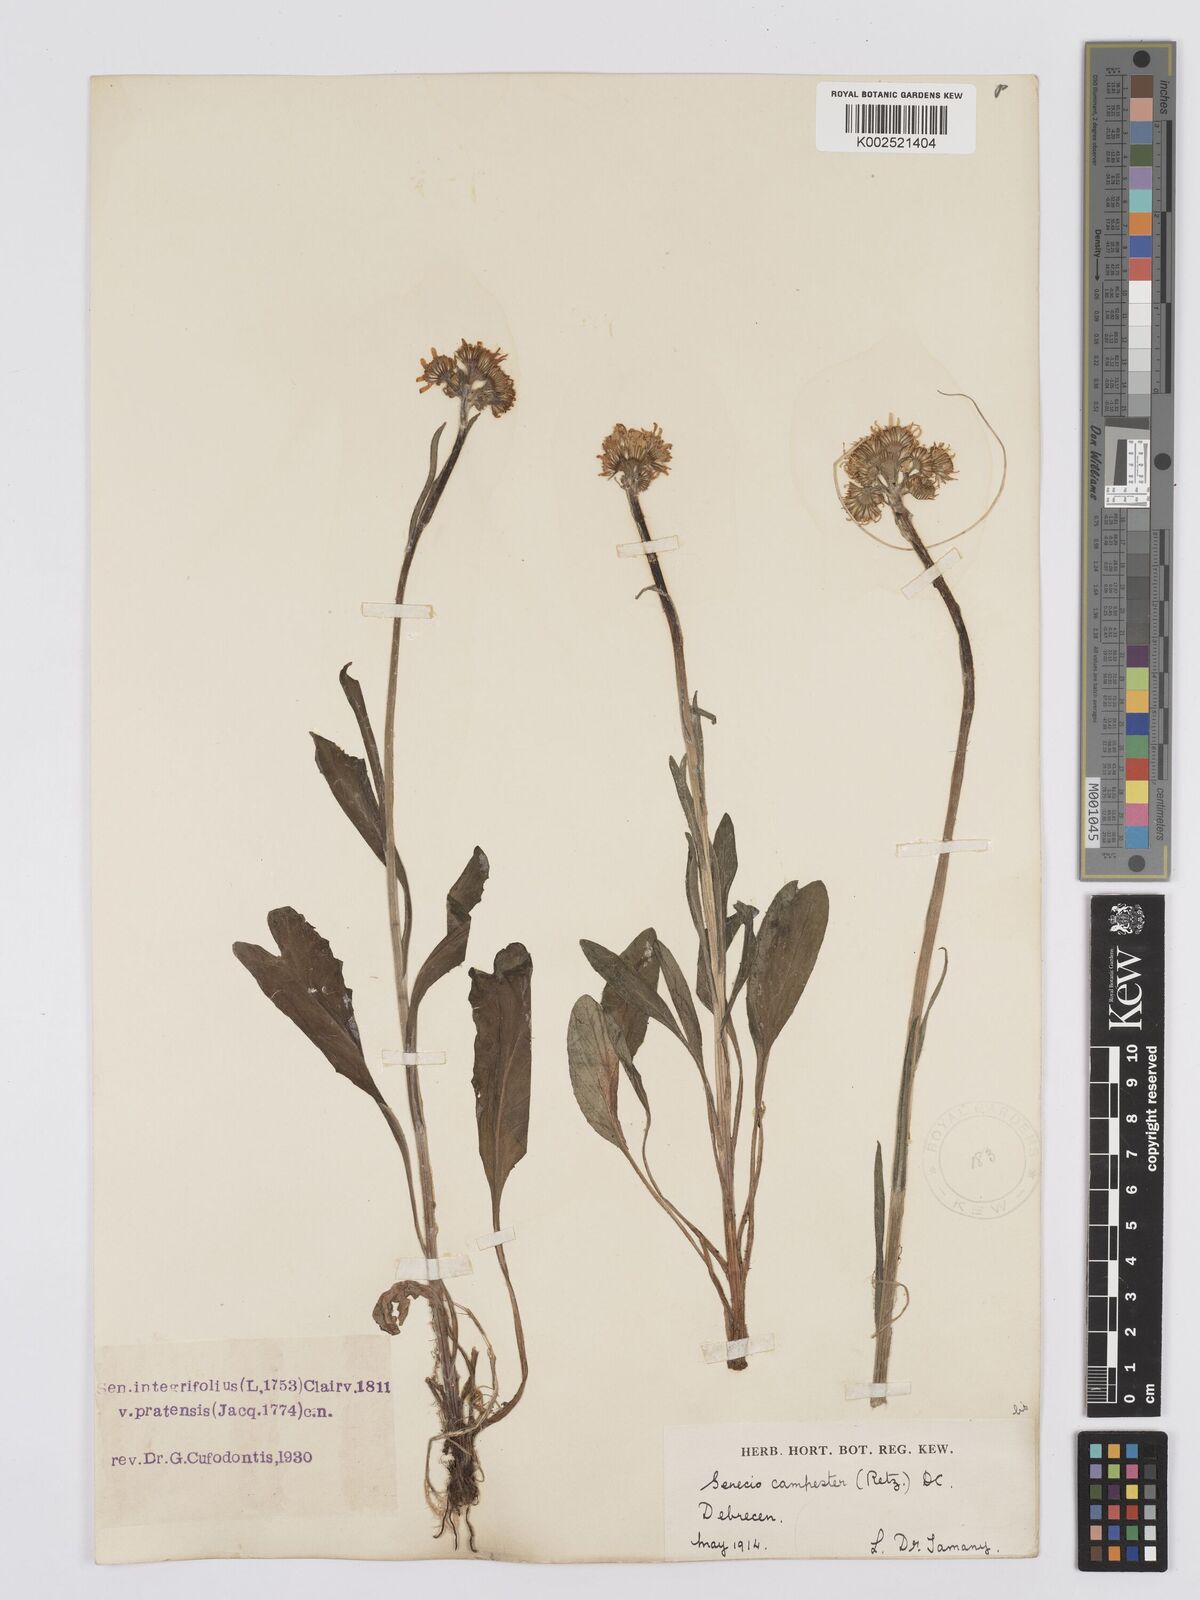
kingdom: Plantae
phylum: Tracheophyta
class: Magnoliopsida
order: Asterales
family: Asteraceae
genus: Tephroseris
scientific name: Tephroseris helenitis
